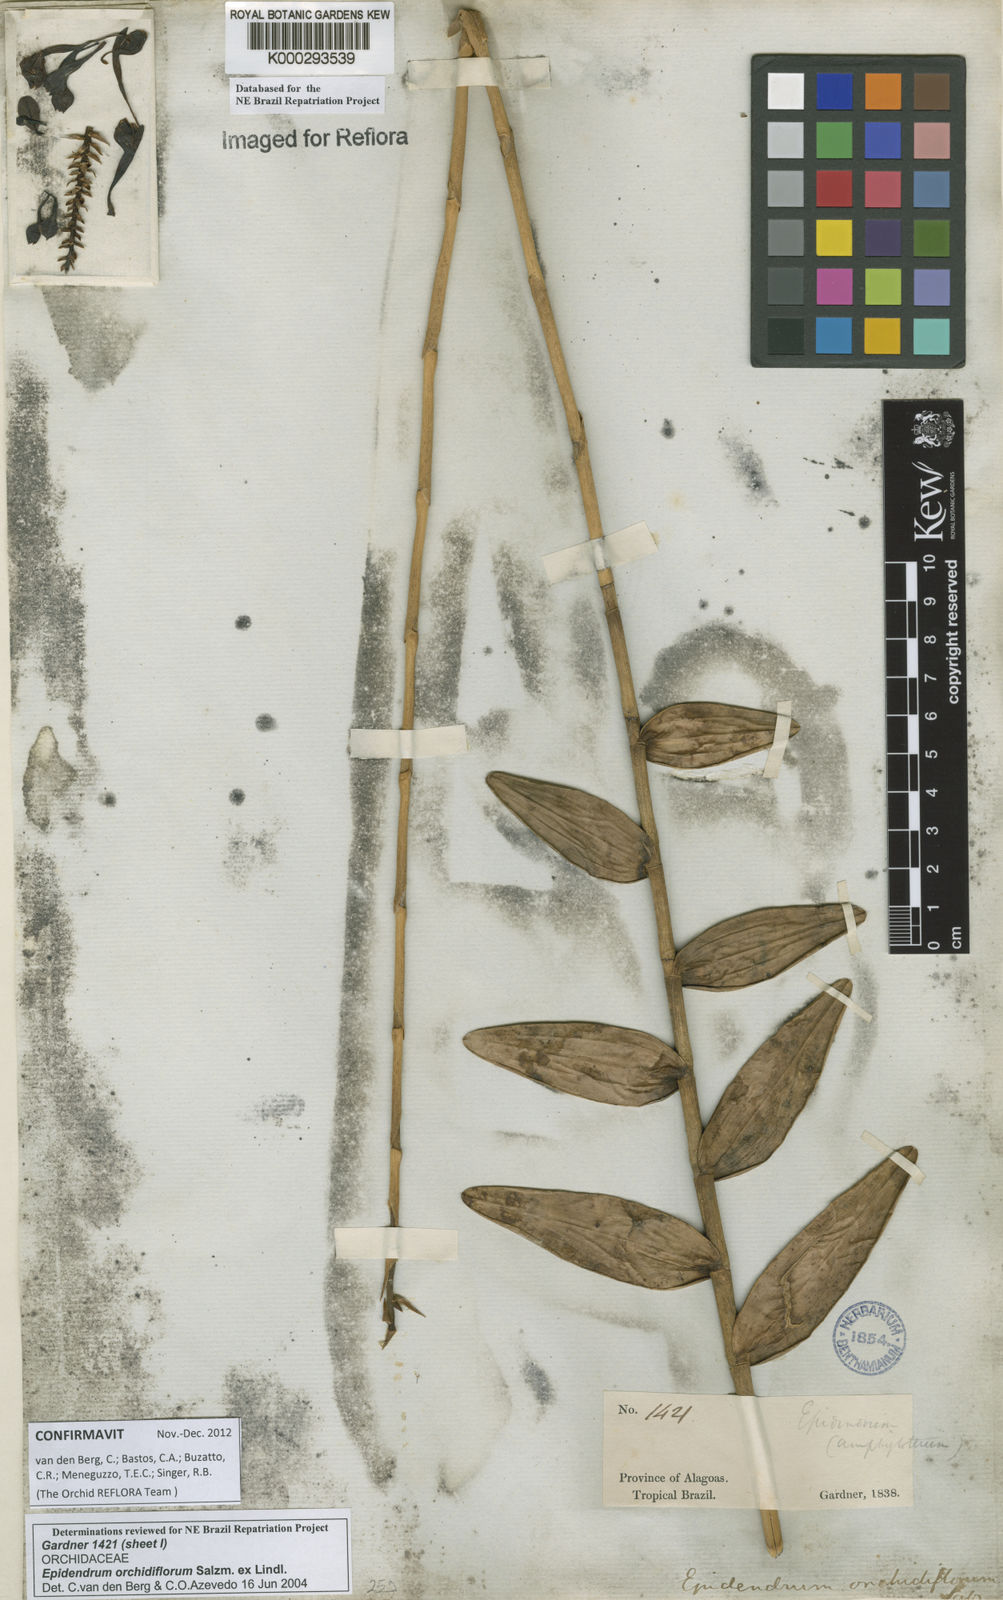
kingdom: Plantae
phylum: Tracheophyta
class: Liliopsida
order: Asparagales
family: Orchidaceae
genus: Epidendrum
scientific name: Epidendrum orchidiflorum
